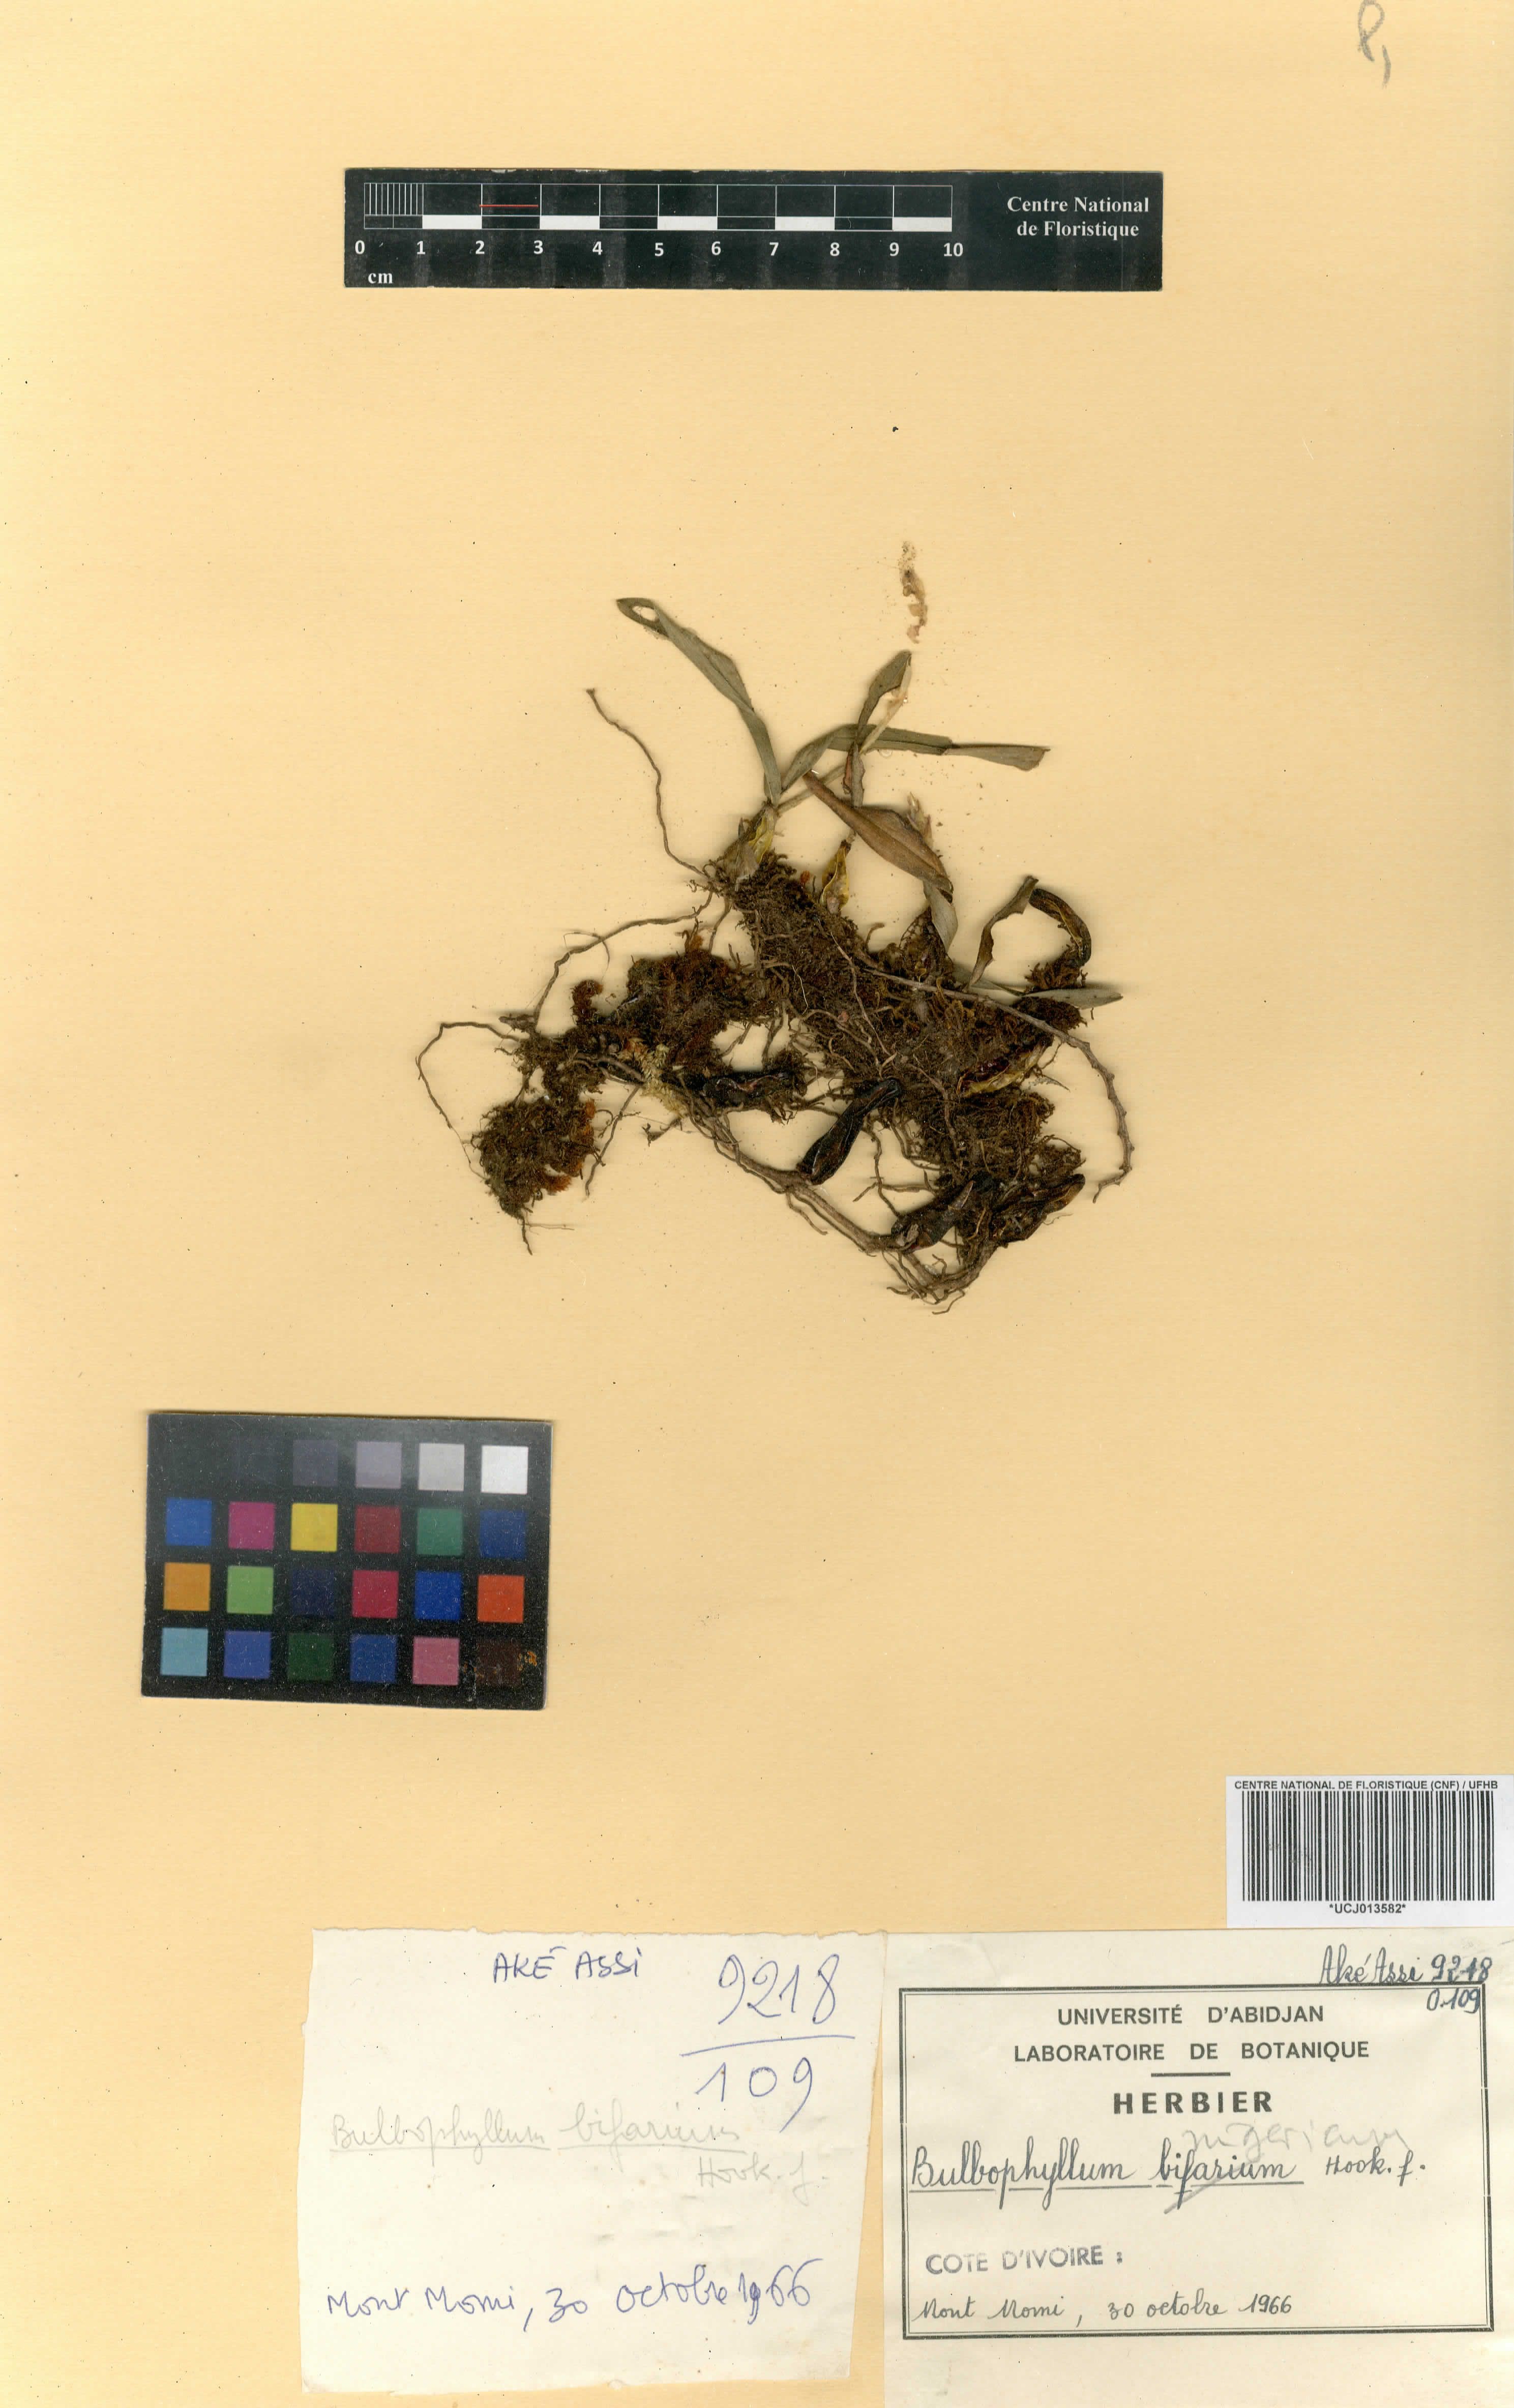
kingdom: Plantae
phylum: Tracheophyta
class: Liliopsida
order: Asparagales
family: Orchidaceae
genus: Bulbophyllum
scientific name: Bulbophyllum nigericum
